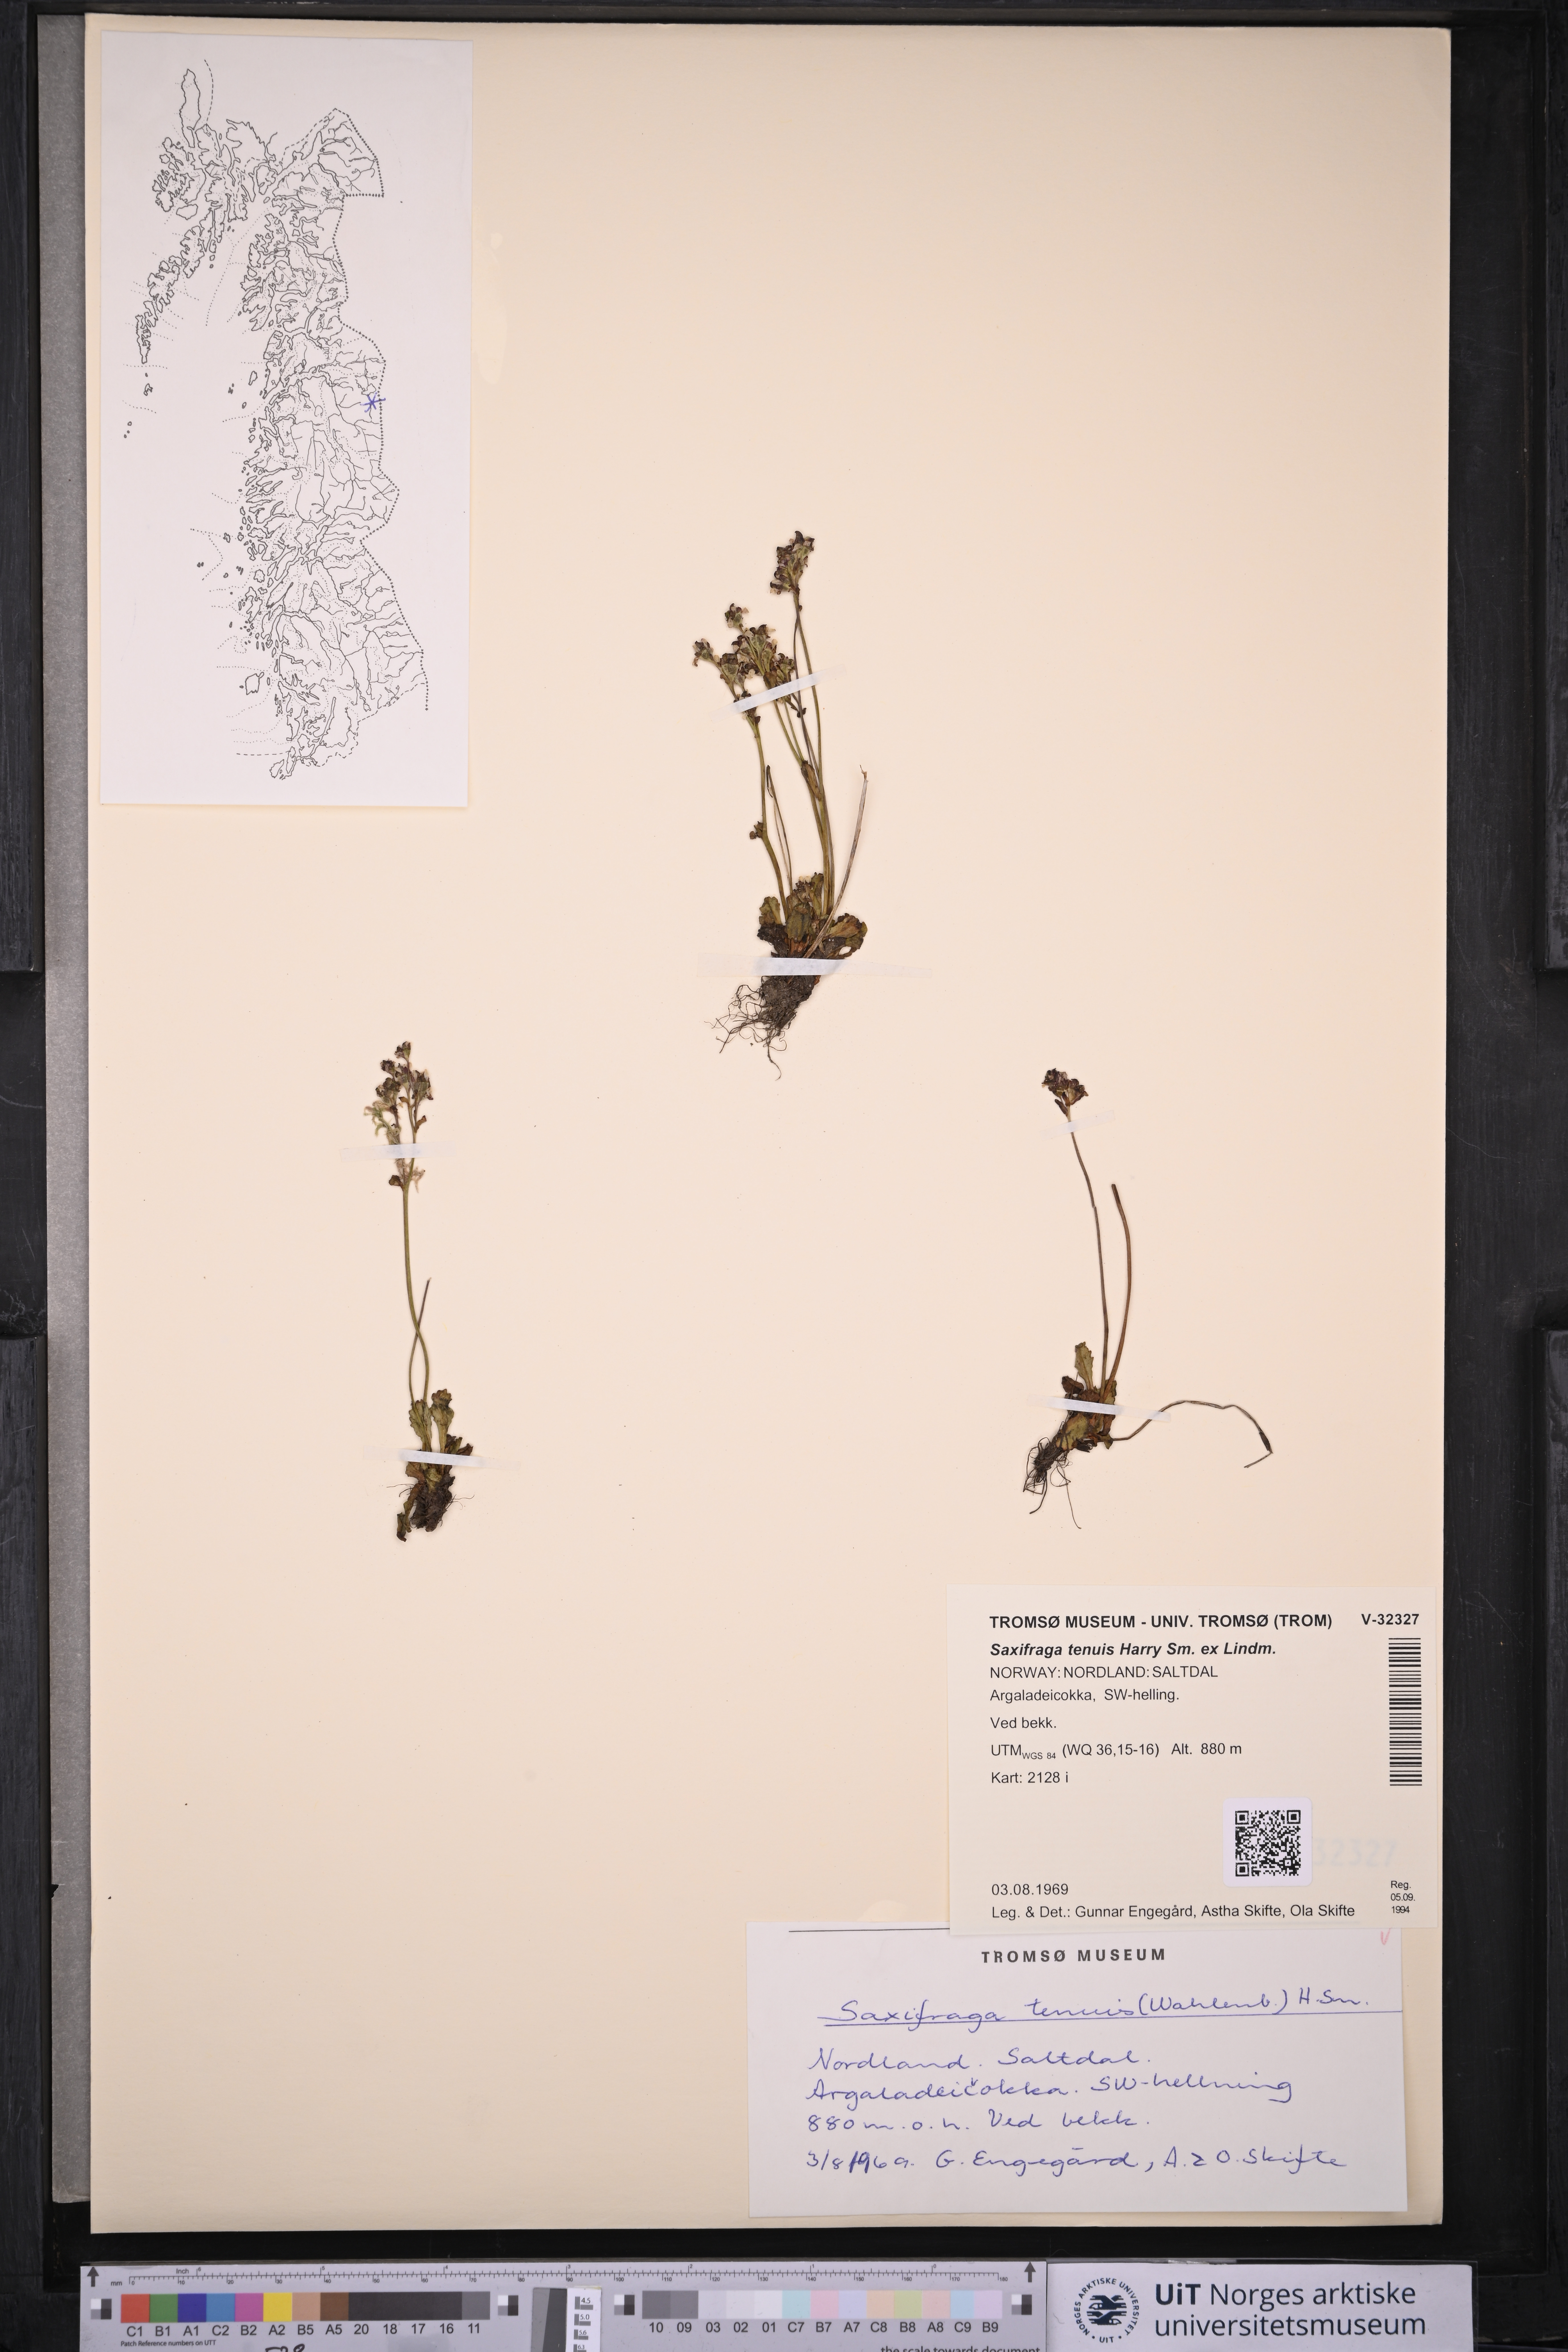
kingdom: Plantae
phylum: Tracheophyta
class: Magnoliopsida
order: Saxifragales
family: Saxifragaceae
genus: Micranthes
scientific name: Micranthes tenuis
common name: Ottertail pass saxifrage
